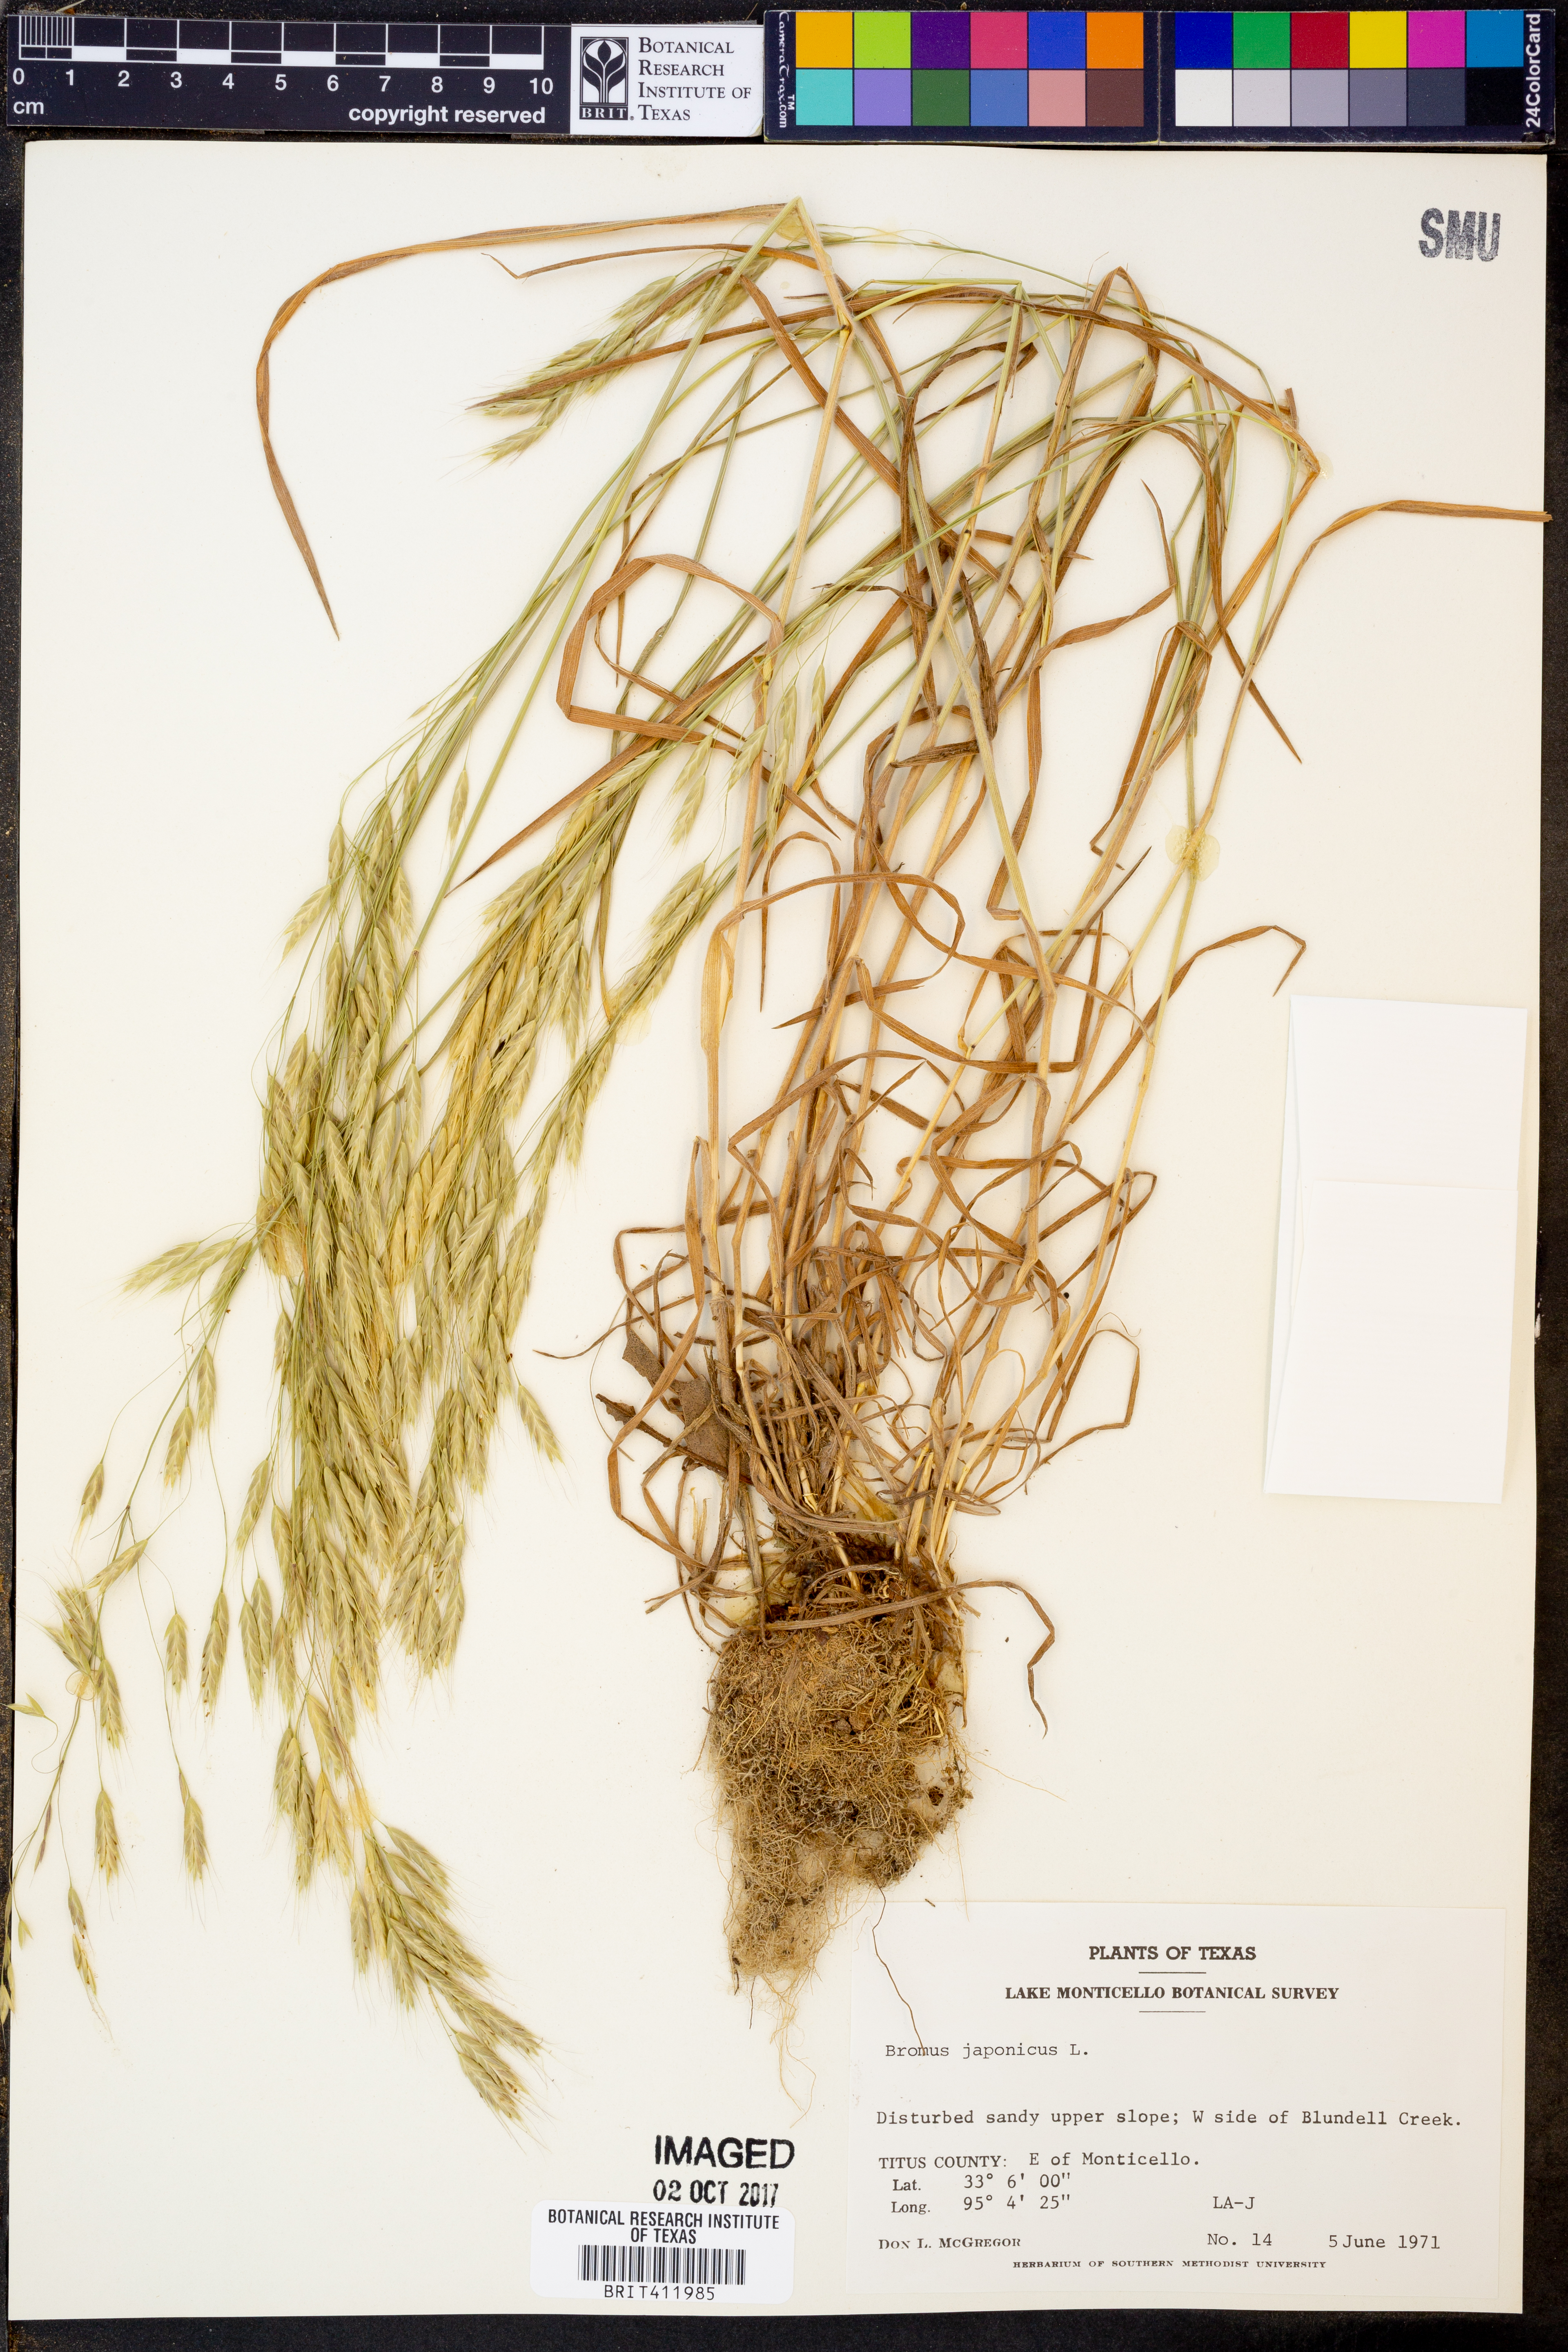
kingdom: Plantae
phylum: Tracheophyta
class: Liliopsida
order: Poales
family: Poaceae
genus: Bromus
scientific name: Bromus japonicus
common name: Japanese brome
